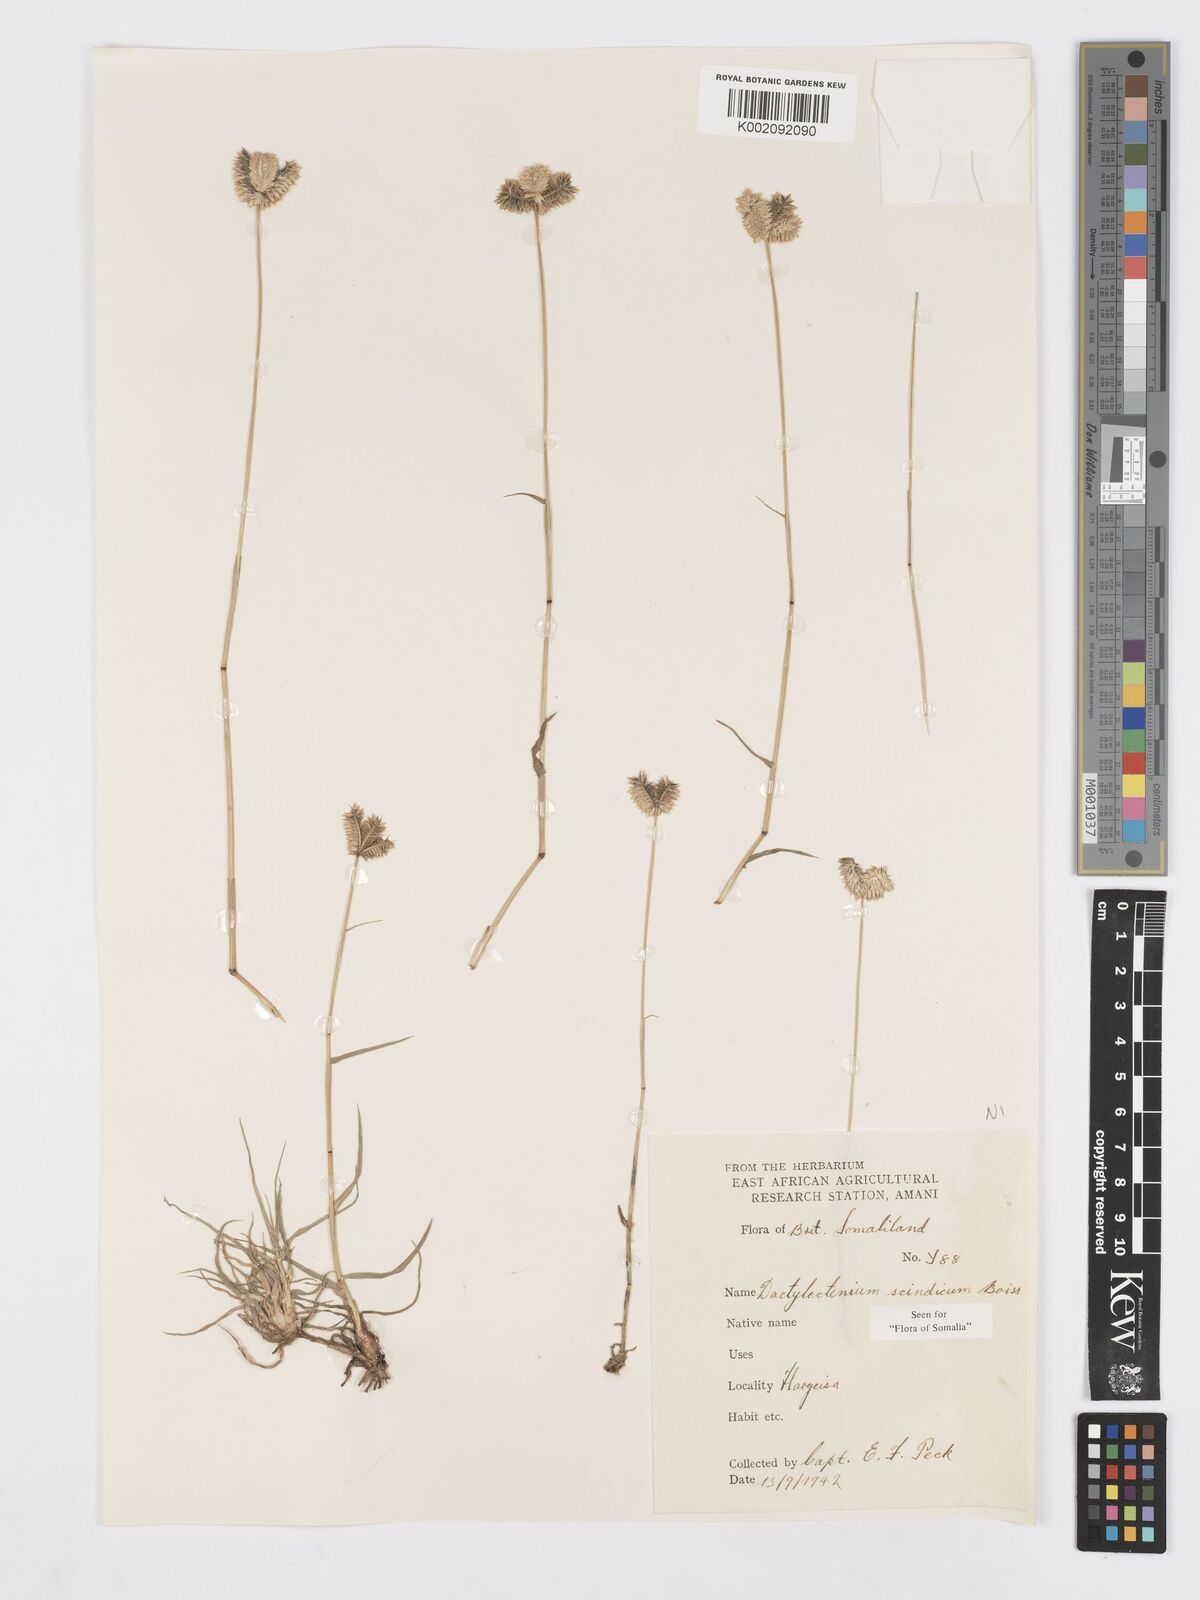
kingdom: Plantae
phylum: Tracheophyta
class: Liliopsida
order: Poales
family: Poaceae
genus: Dactyloctenium
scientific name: Dactyloctenium scindicum
